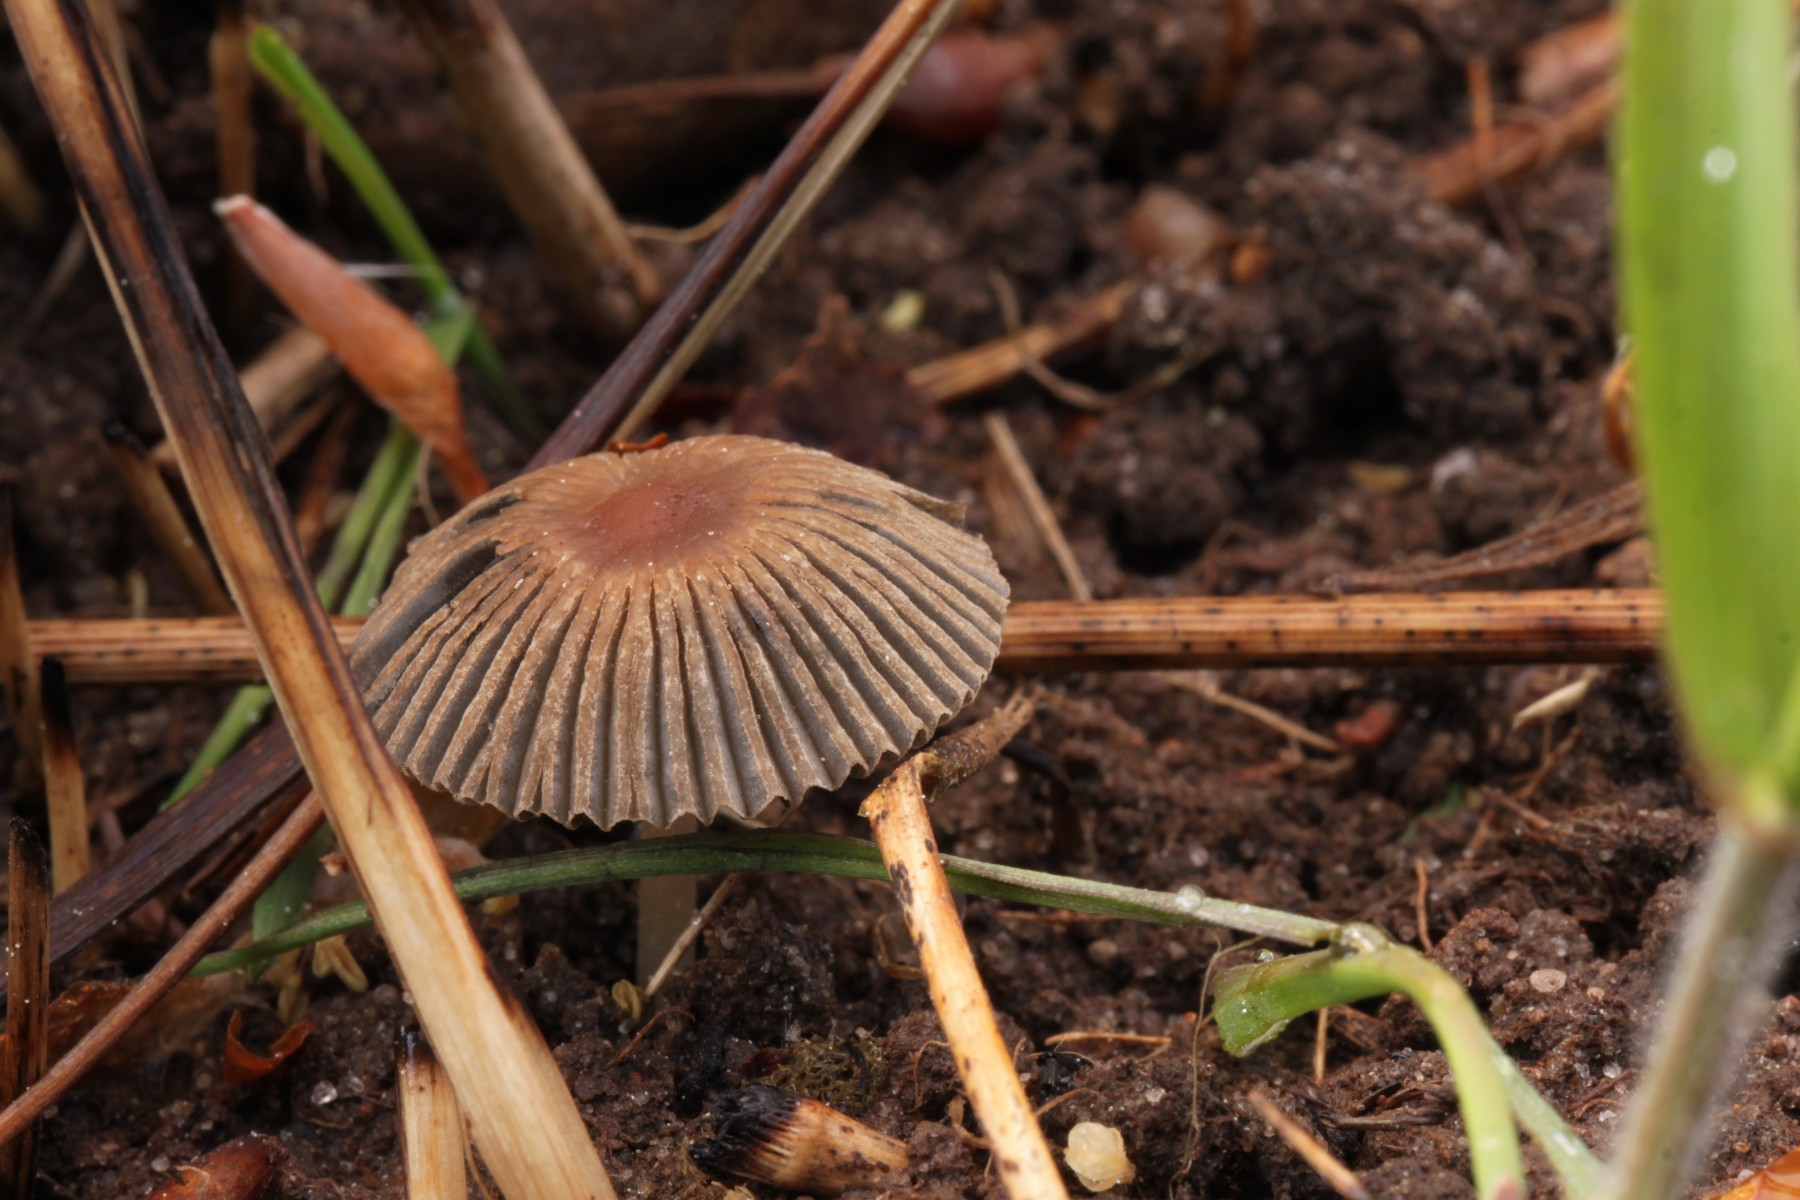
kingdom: Fungi
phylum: Basidiomycota
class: Agaricomycetes
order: Agaricales
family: Psathyrellaceae
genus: Parasola
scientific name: Parasola schroeteri
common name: bredsporet hjulhat
